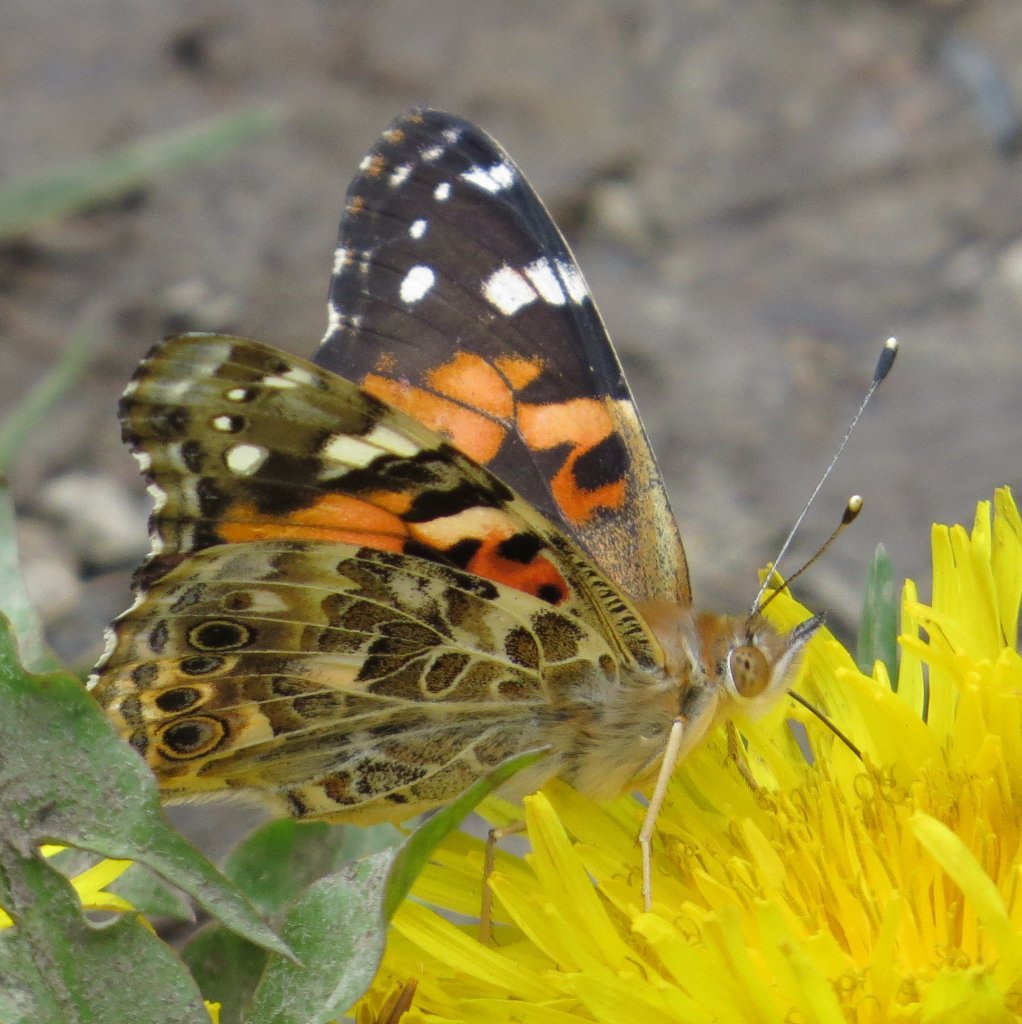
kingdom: Animalia
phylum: Arthropoda
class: Insecta
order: Lepidoptera
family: Nymphalidae
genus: Vanessa
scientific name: Vanessa cardui
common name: Painted Lady
